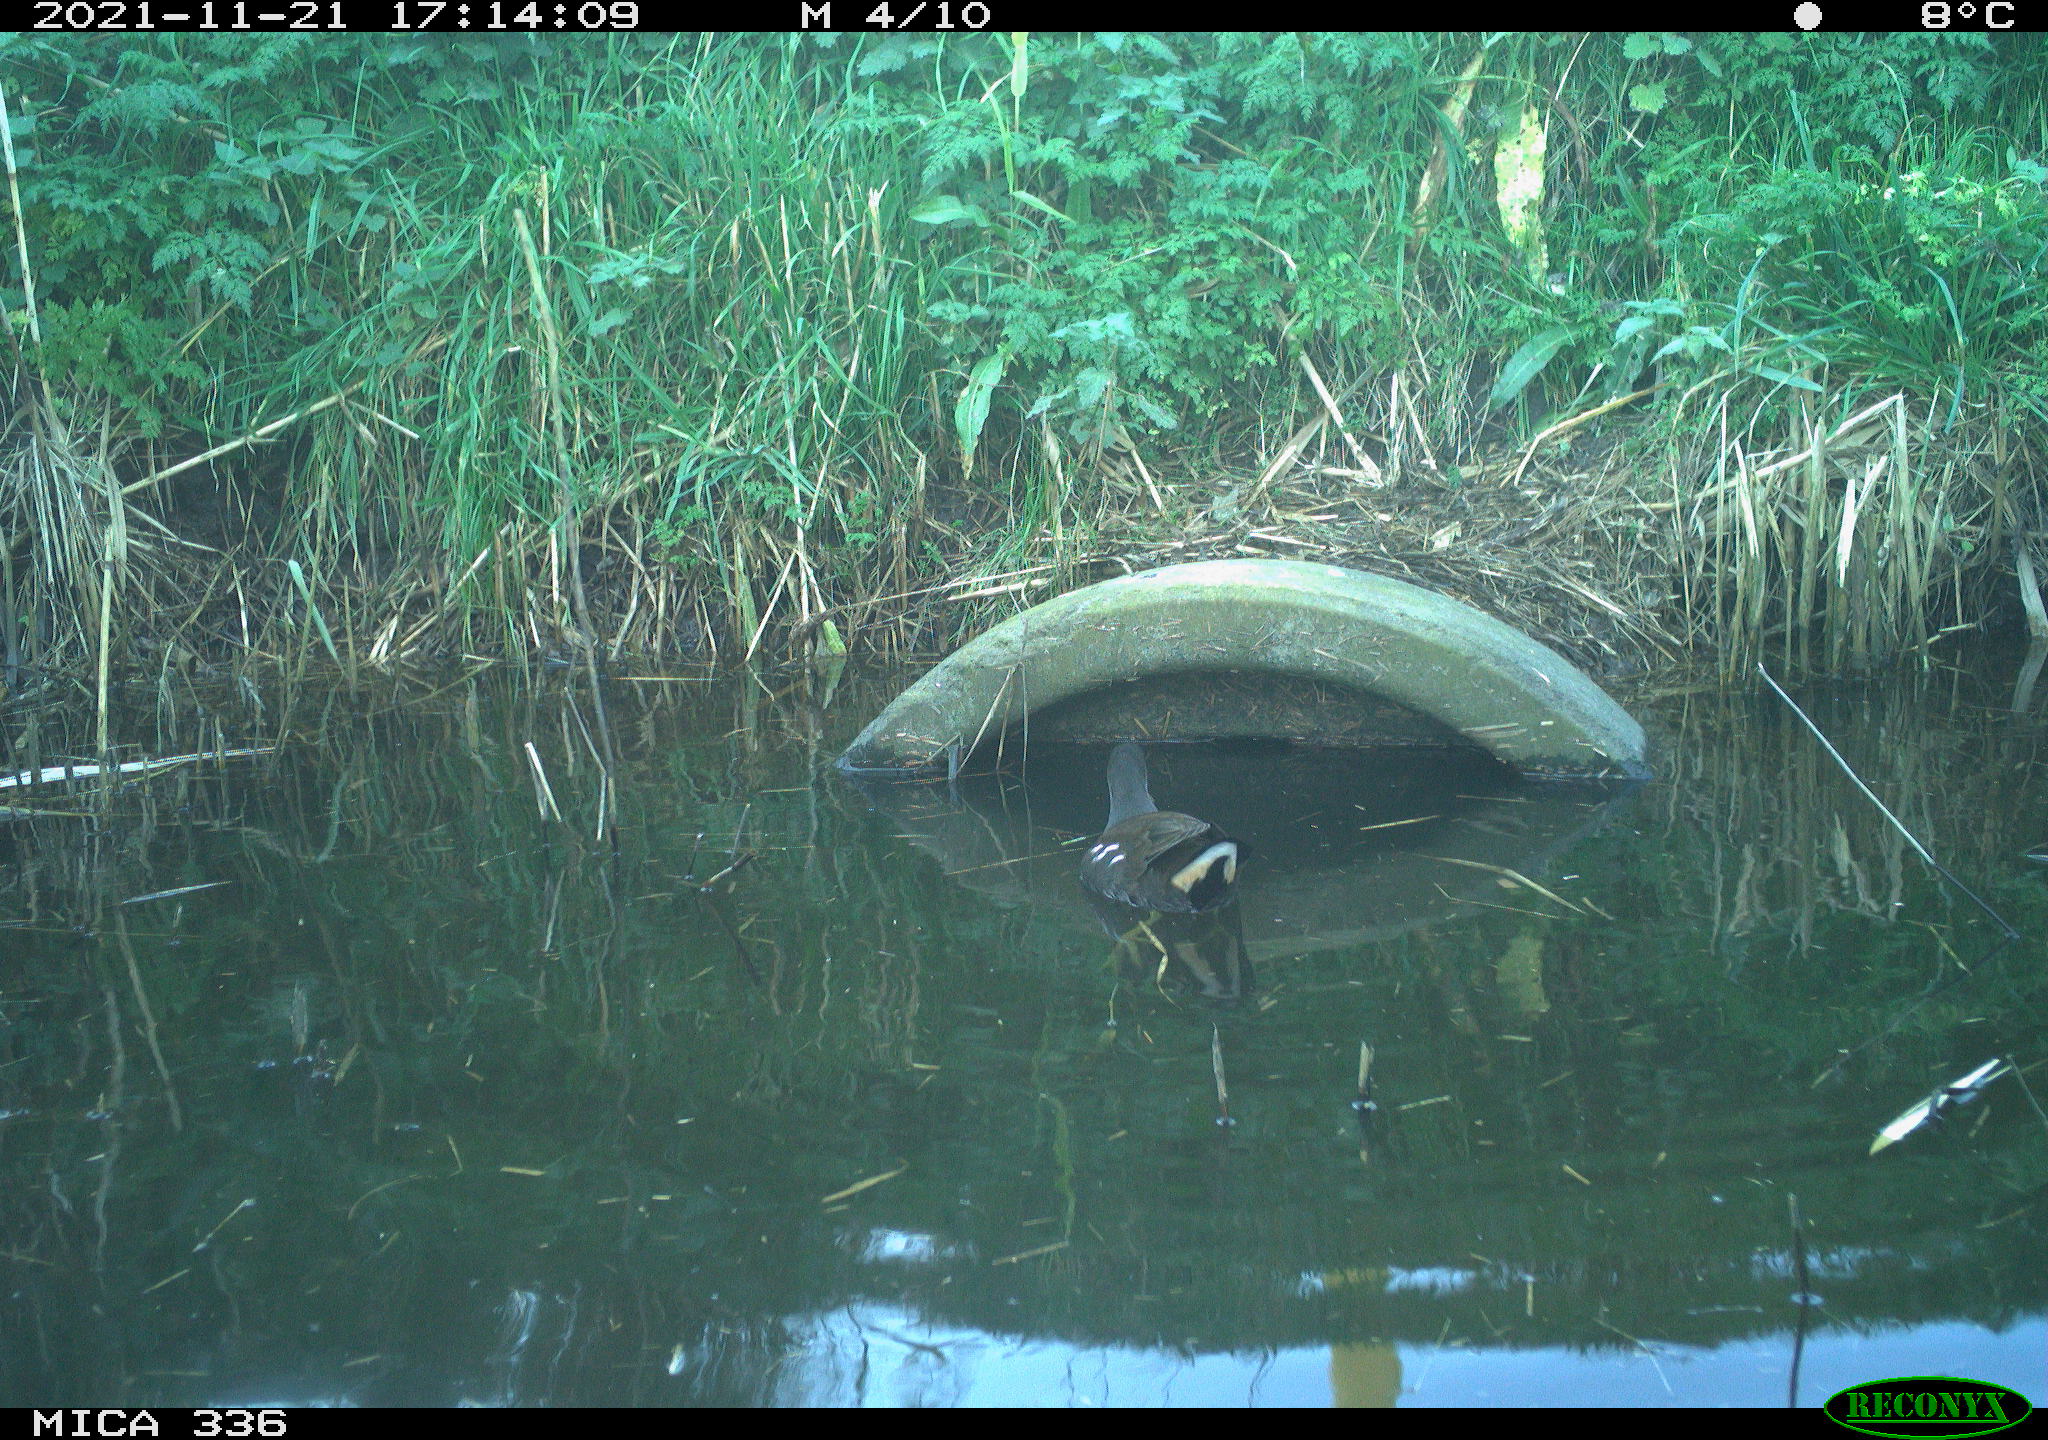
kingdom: Animalia
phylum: Chordata
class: Aves
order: Gruiformes
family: Rallidae
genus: Gallinula
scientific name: Gallinula chloropus
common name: Common moorhen
